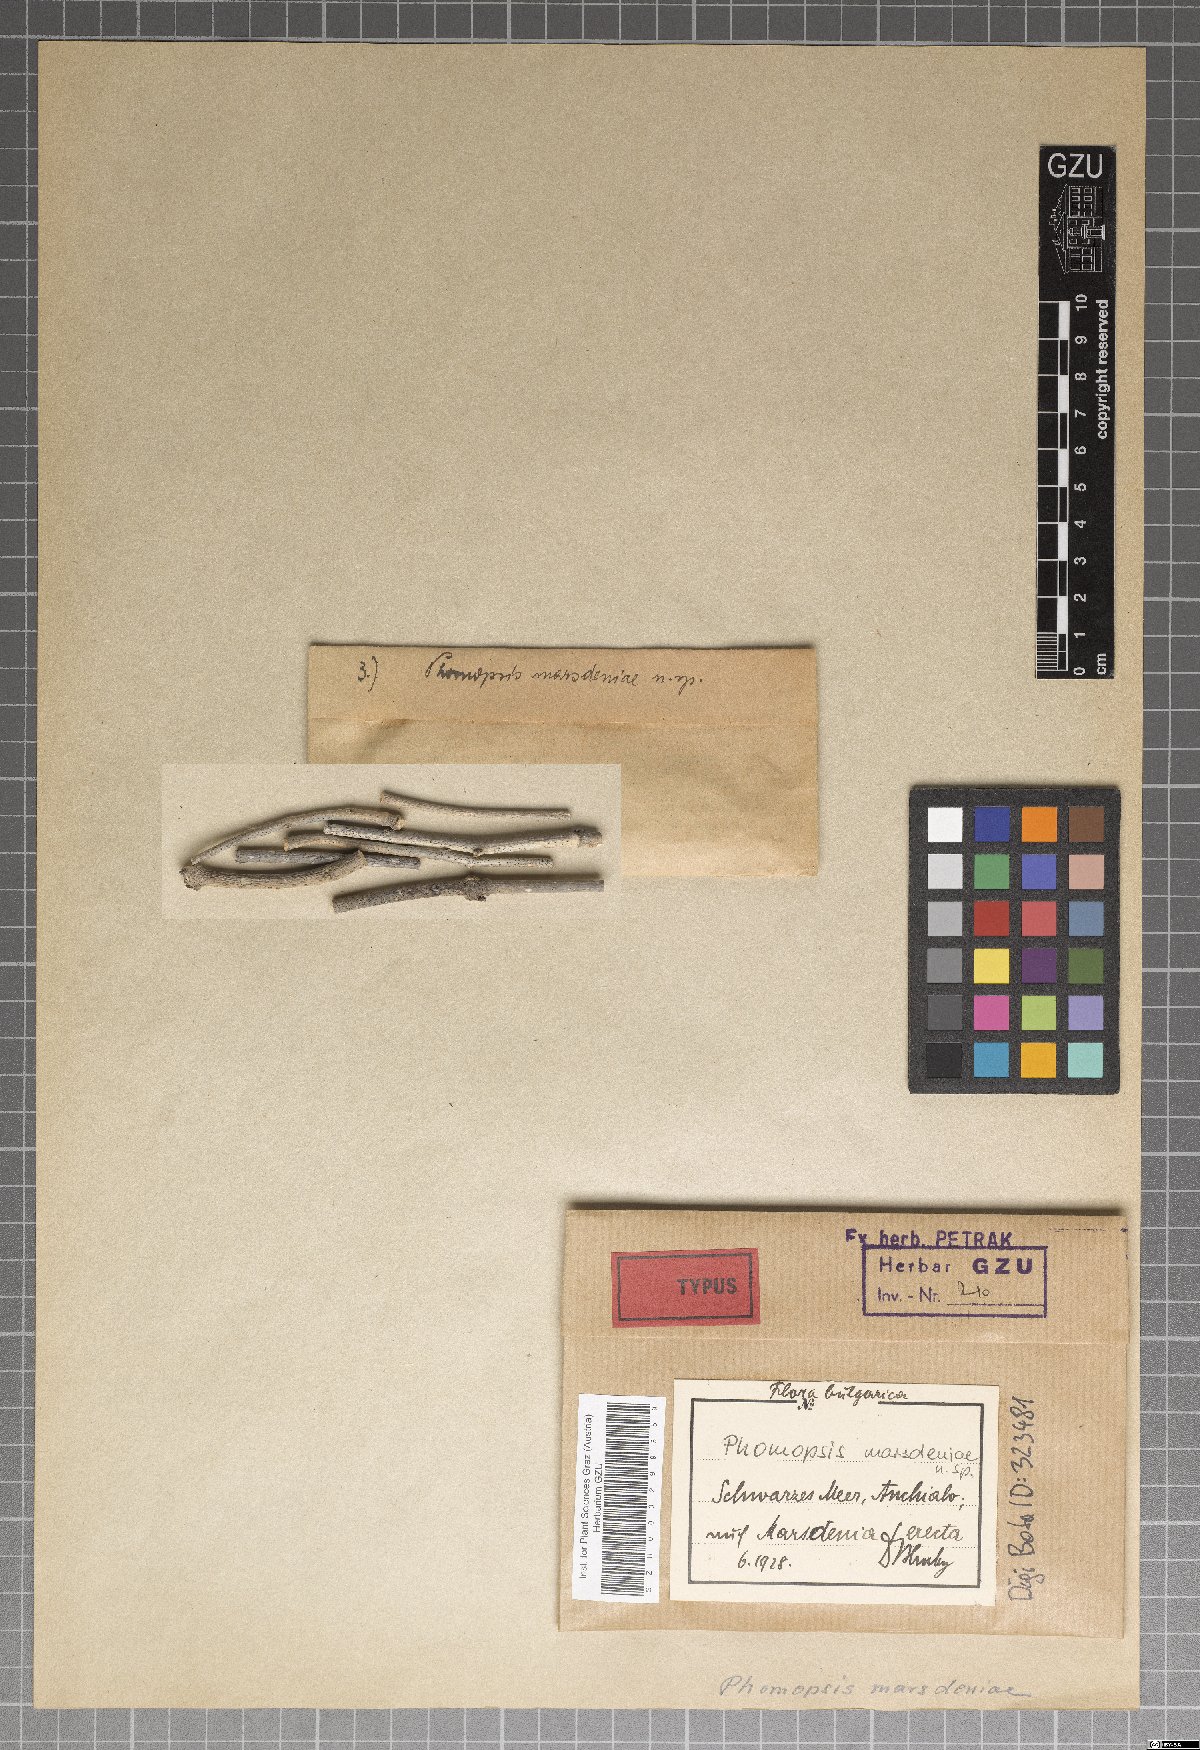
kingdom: Fungi
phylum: Ascomycota
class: Sordariomycetes
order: Diaporthales
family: Diaporthaceae
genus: Phomopsis
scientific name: Phomopsis marsdeniae
